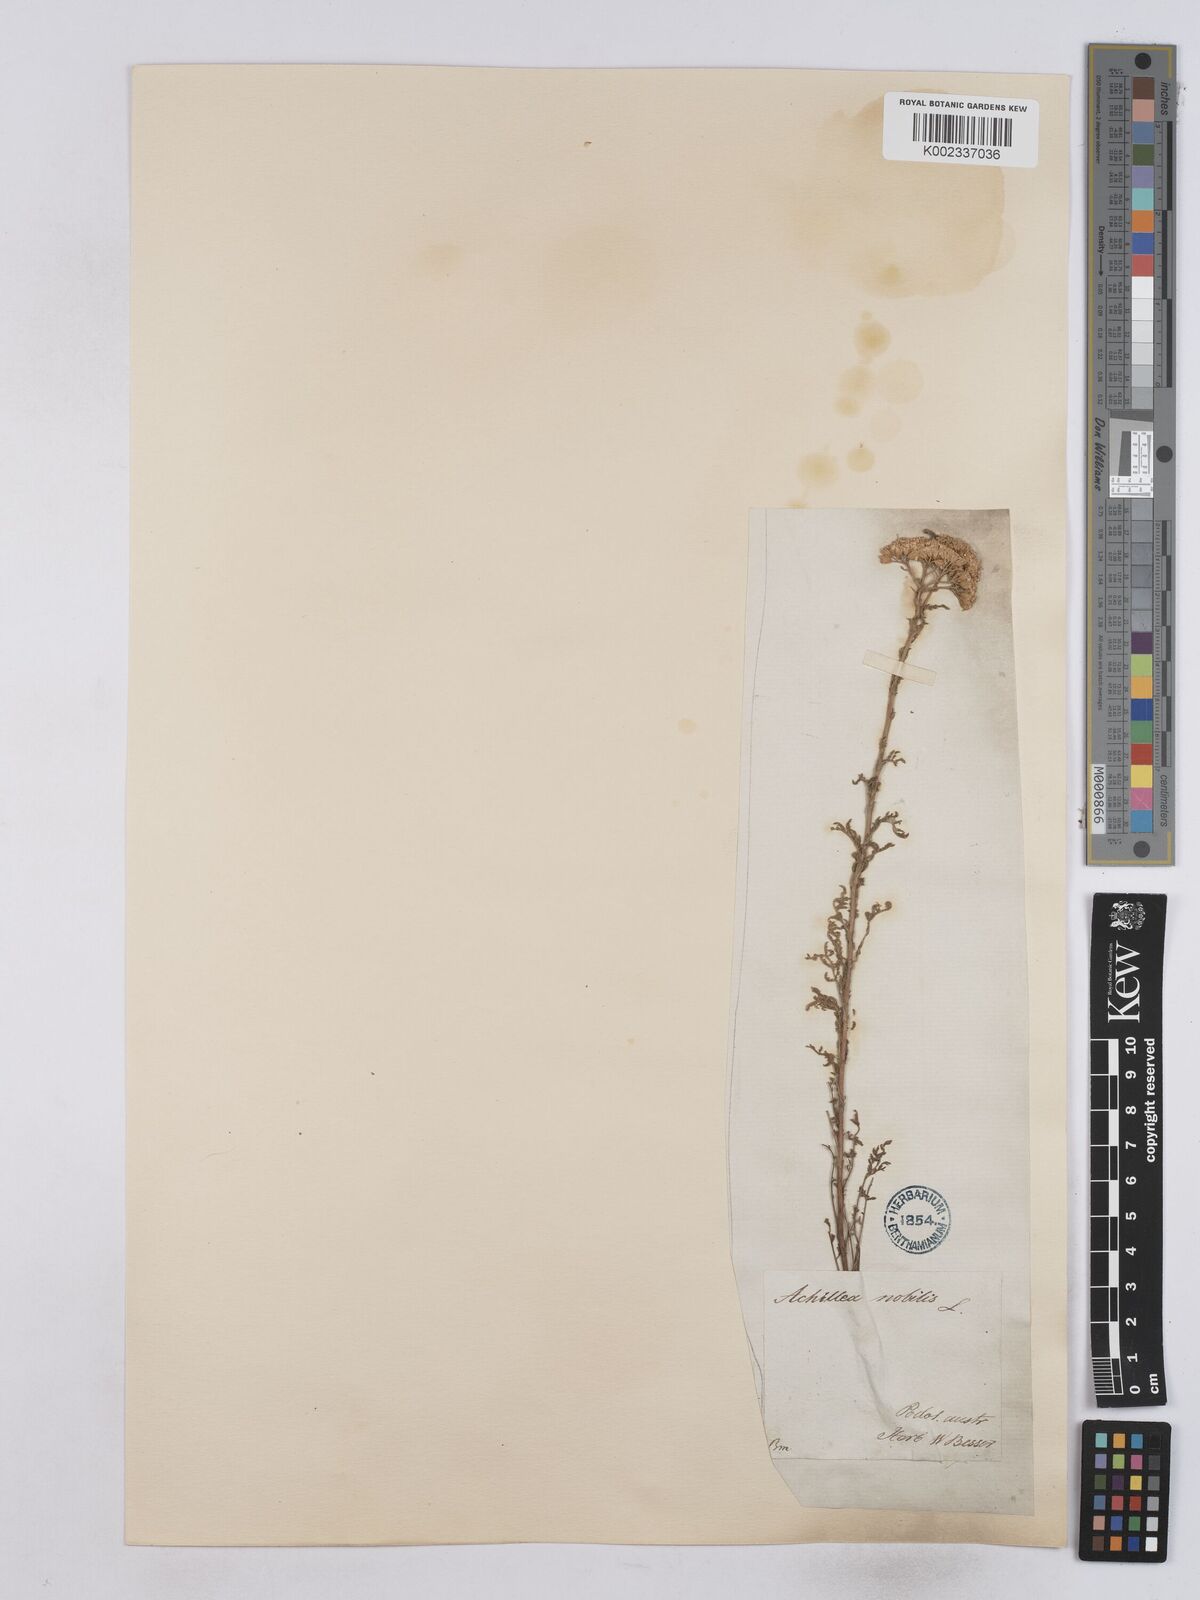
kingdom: Plantae
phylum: Tracheophyta
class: Magnoliopsida
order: Asterales
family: Asteraceae
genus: Achillea
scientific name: Achillea nobilis
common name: Noble yarrow
